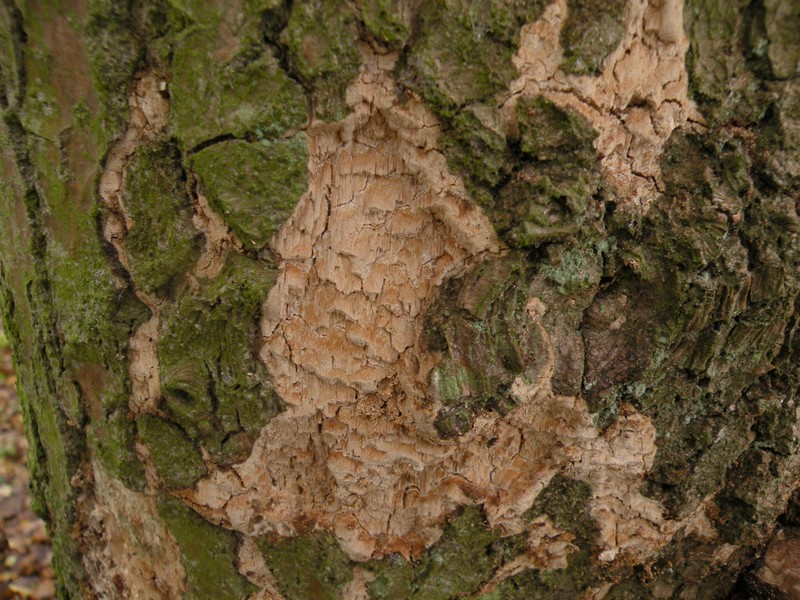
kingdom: Fungi
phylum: Basidiomycota
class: Agaricomycetes
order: Hymenochaetales
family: Schizoporaceae
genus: Xylodon
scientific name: Xylodon flaviporus
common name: gulporet tandsvamp
